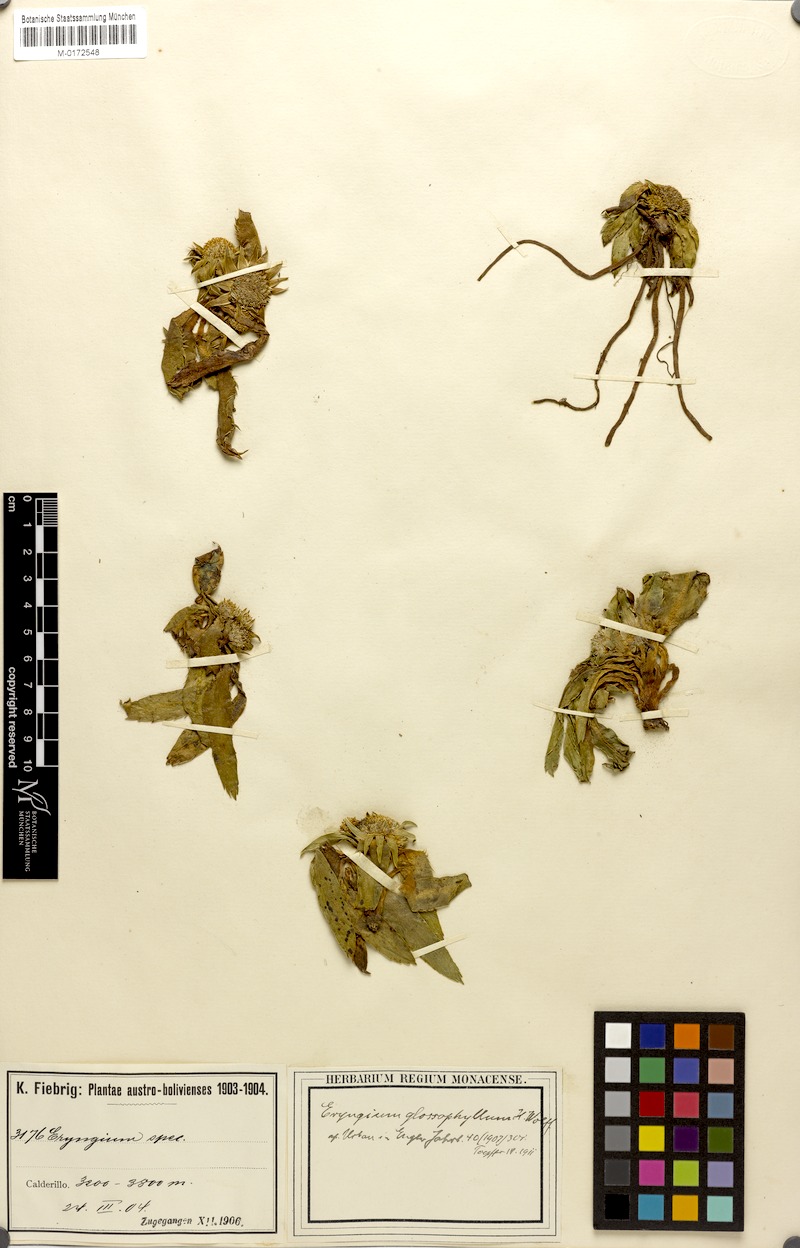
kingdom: Plantae
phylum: Tracheophyta
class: Magnoliopsida
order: Apiales
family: Apiaceae
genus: Eryngium
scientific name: Eryngium glossophyllum
